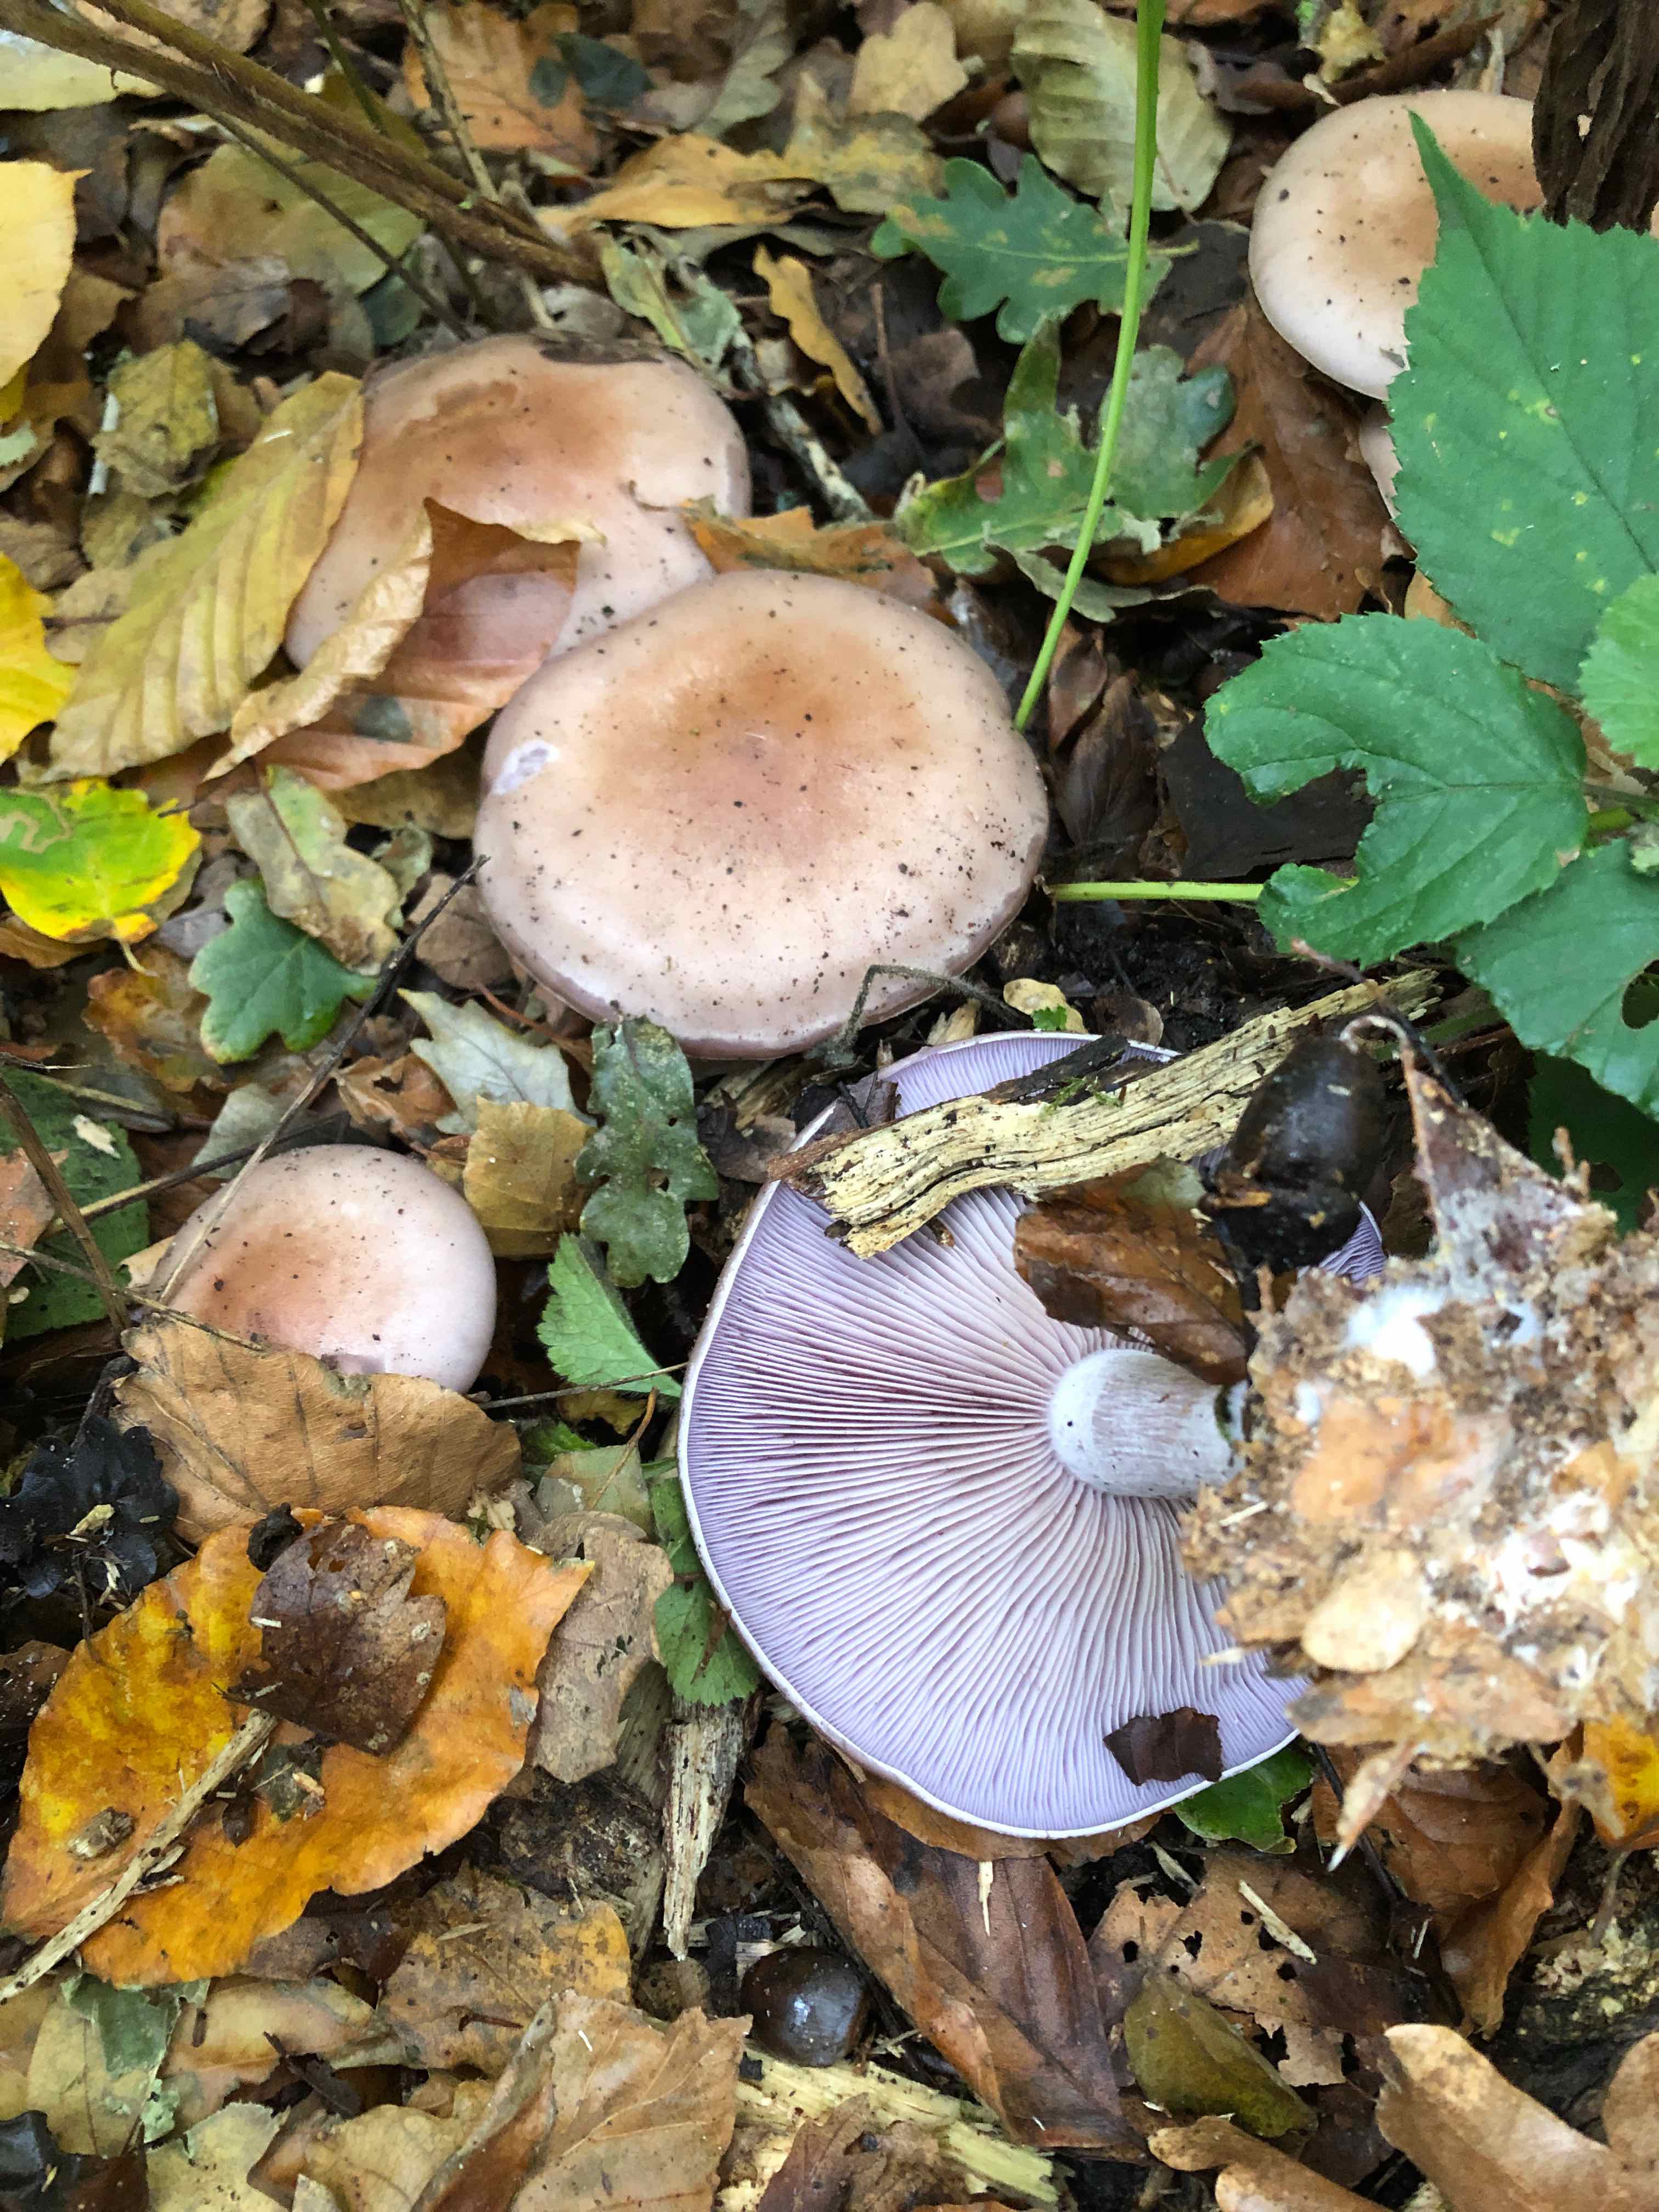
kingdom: Fungi
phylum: Basidiomycota
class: Agaricomycetes
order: Agaricales
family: Tricholomataceae
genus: Lepista
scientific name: Lepista nuda
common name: violet hekseringshat
